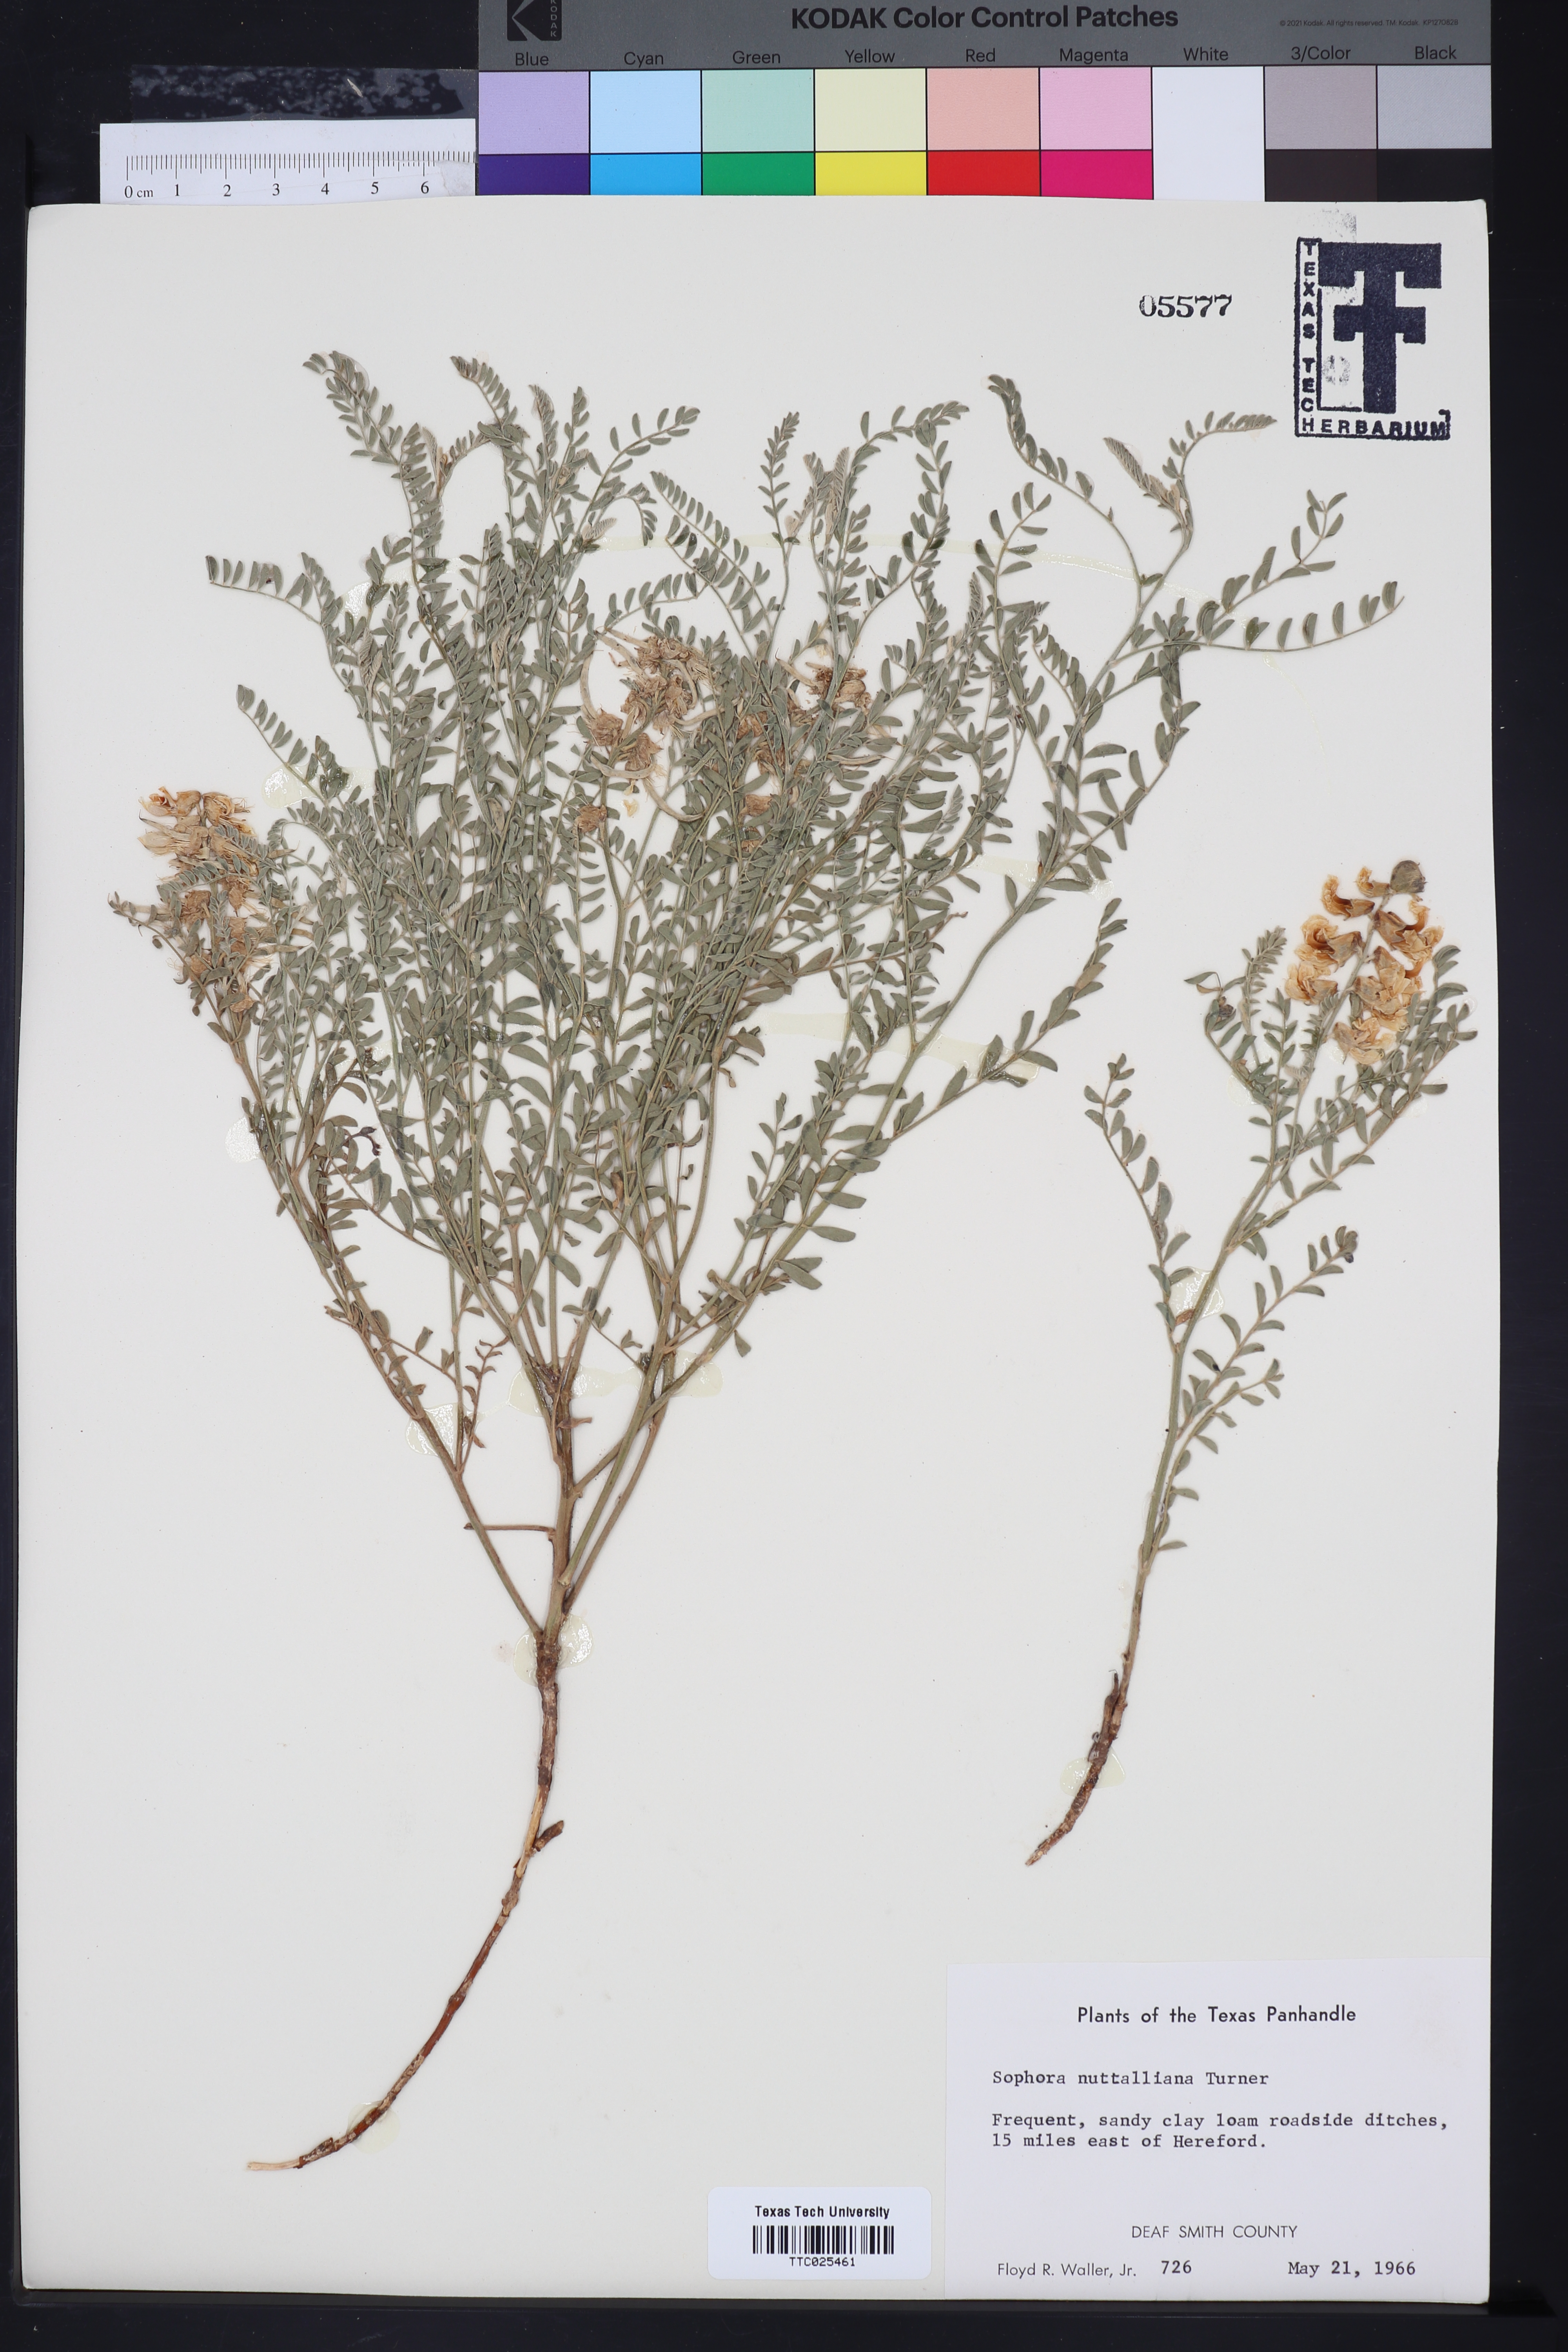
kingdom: Plantae
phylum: Tracheophyta
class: Magnoliopsida
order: Fabales
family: Fabaceae
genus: Sophora
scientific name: Sophora nuttalliana
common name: Silky sophora
